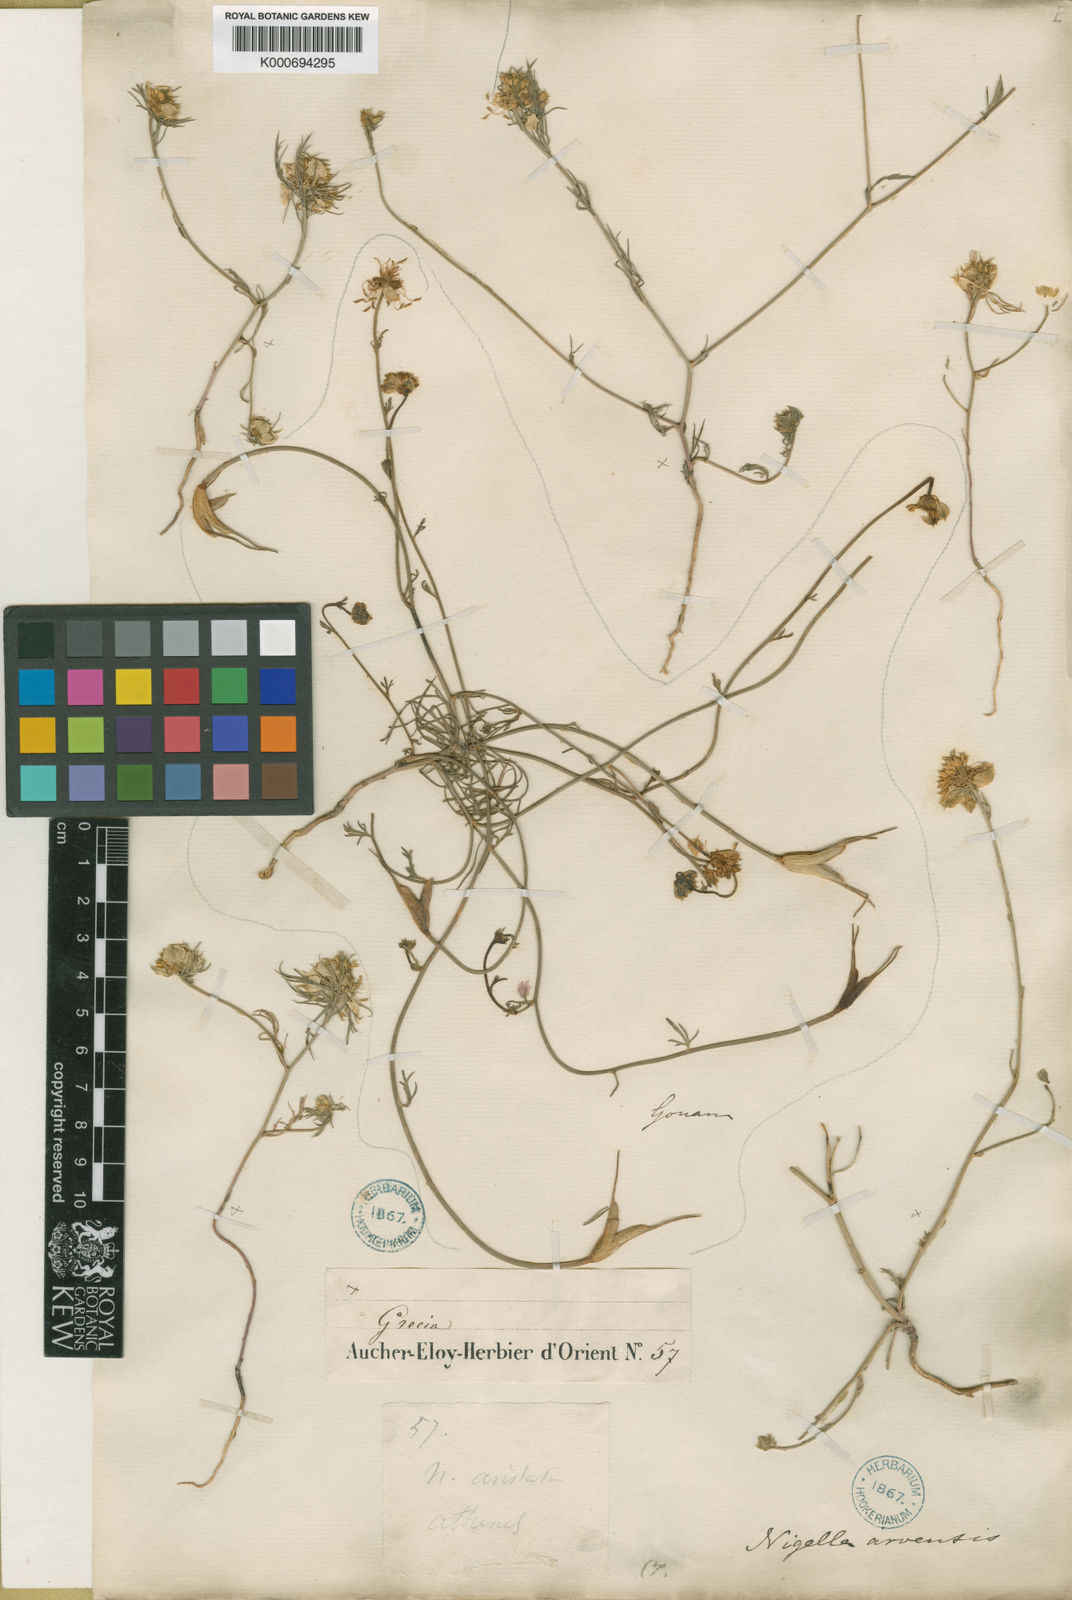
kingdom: Plantae
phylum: Tracheophyta
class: Magnoliopsida
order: Ranunculales
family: Ranunculaceae
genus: Nigella
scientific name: Nigella arvensis
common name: Wild fennel-flower
